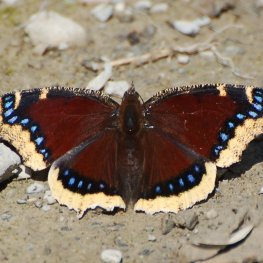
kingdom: Animalia
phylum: Arthropoda
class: Insecta
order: Lepidoptera
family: Nymphalidae
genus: Nymphalis
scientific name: Nymphalis antiopa
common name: Mourning Cloak
